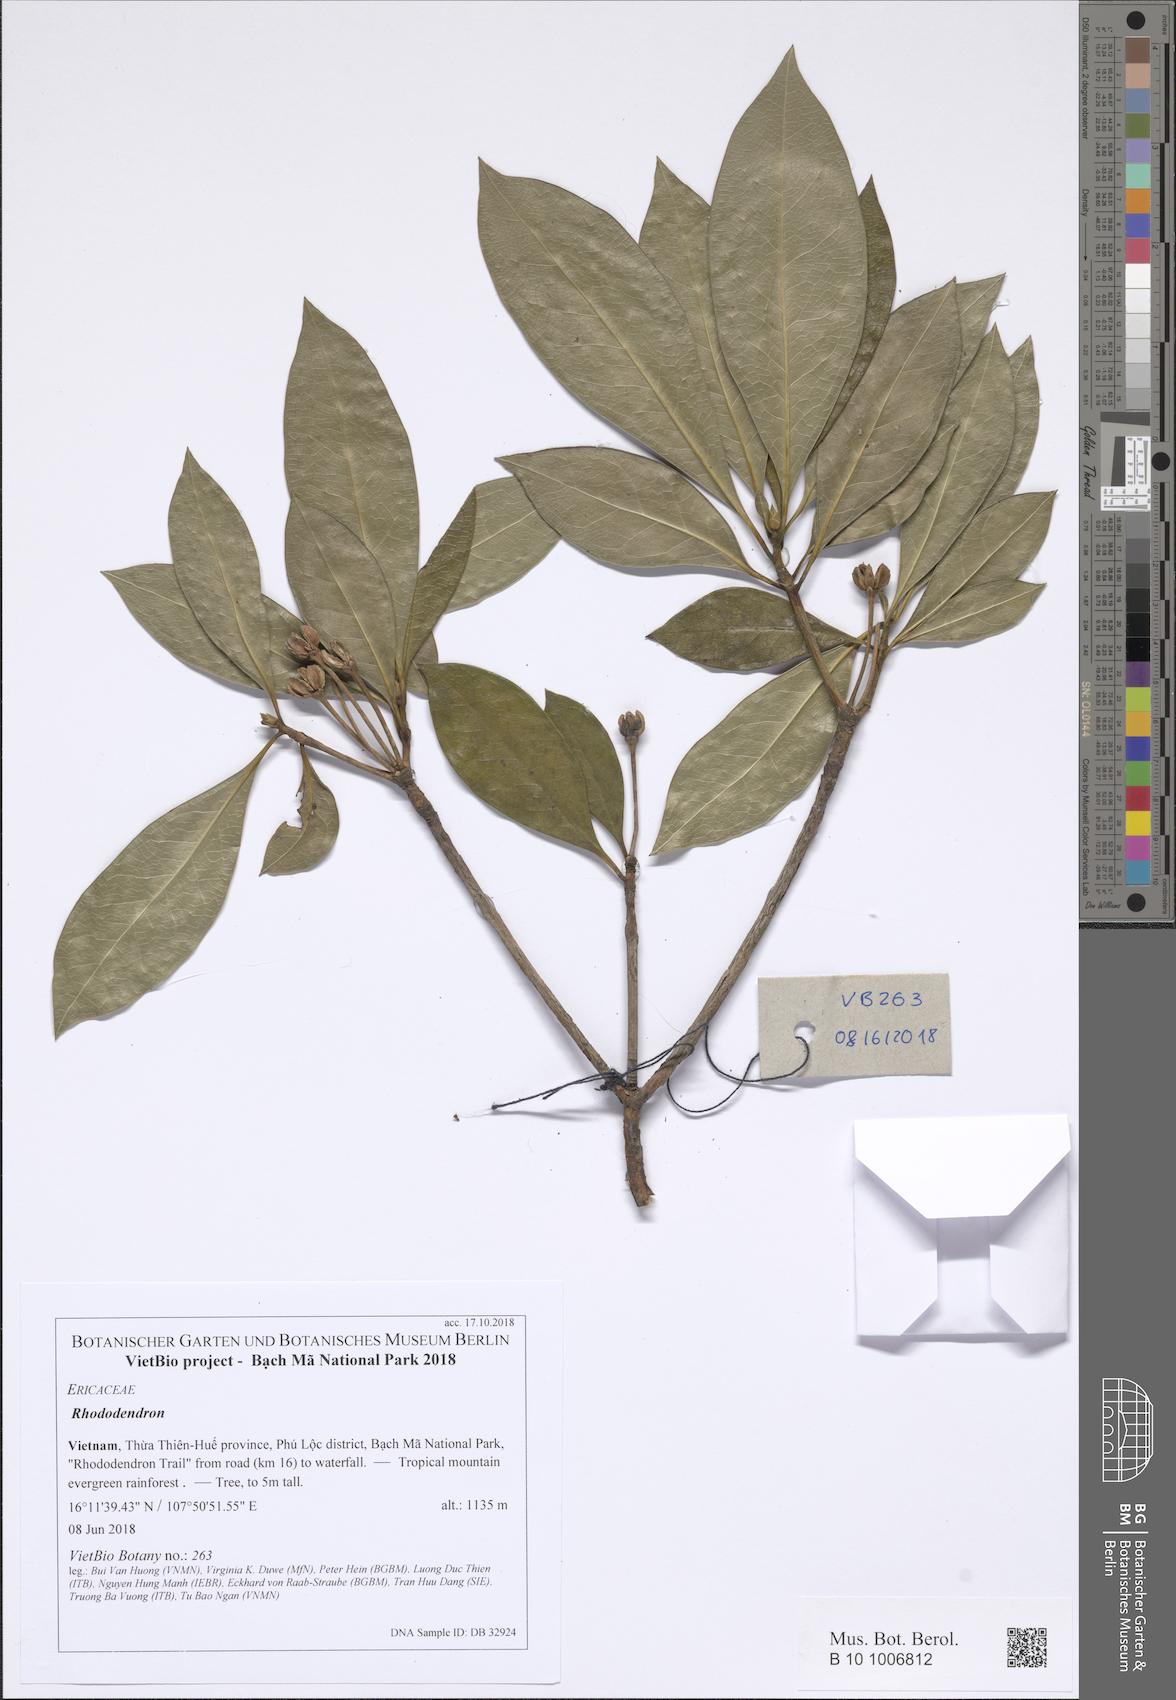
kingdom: Plantae
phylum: Tracheophyta
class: Magnoliopsida
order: Ericales
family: Ericaceae
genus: Enkianthus
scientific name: Enkianthus quinqueflorus
